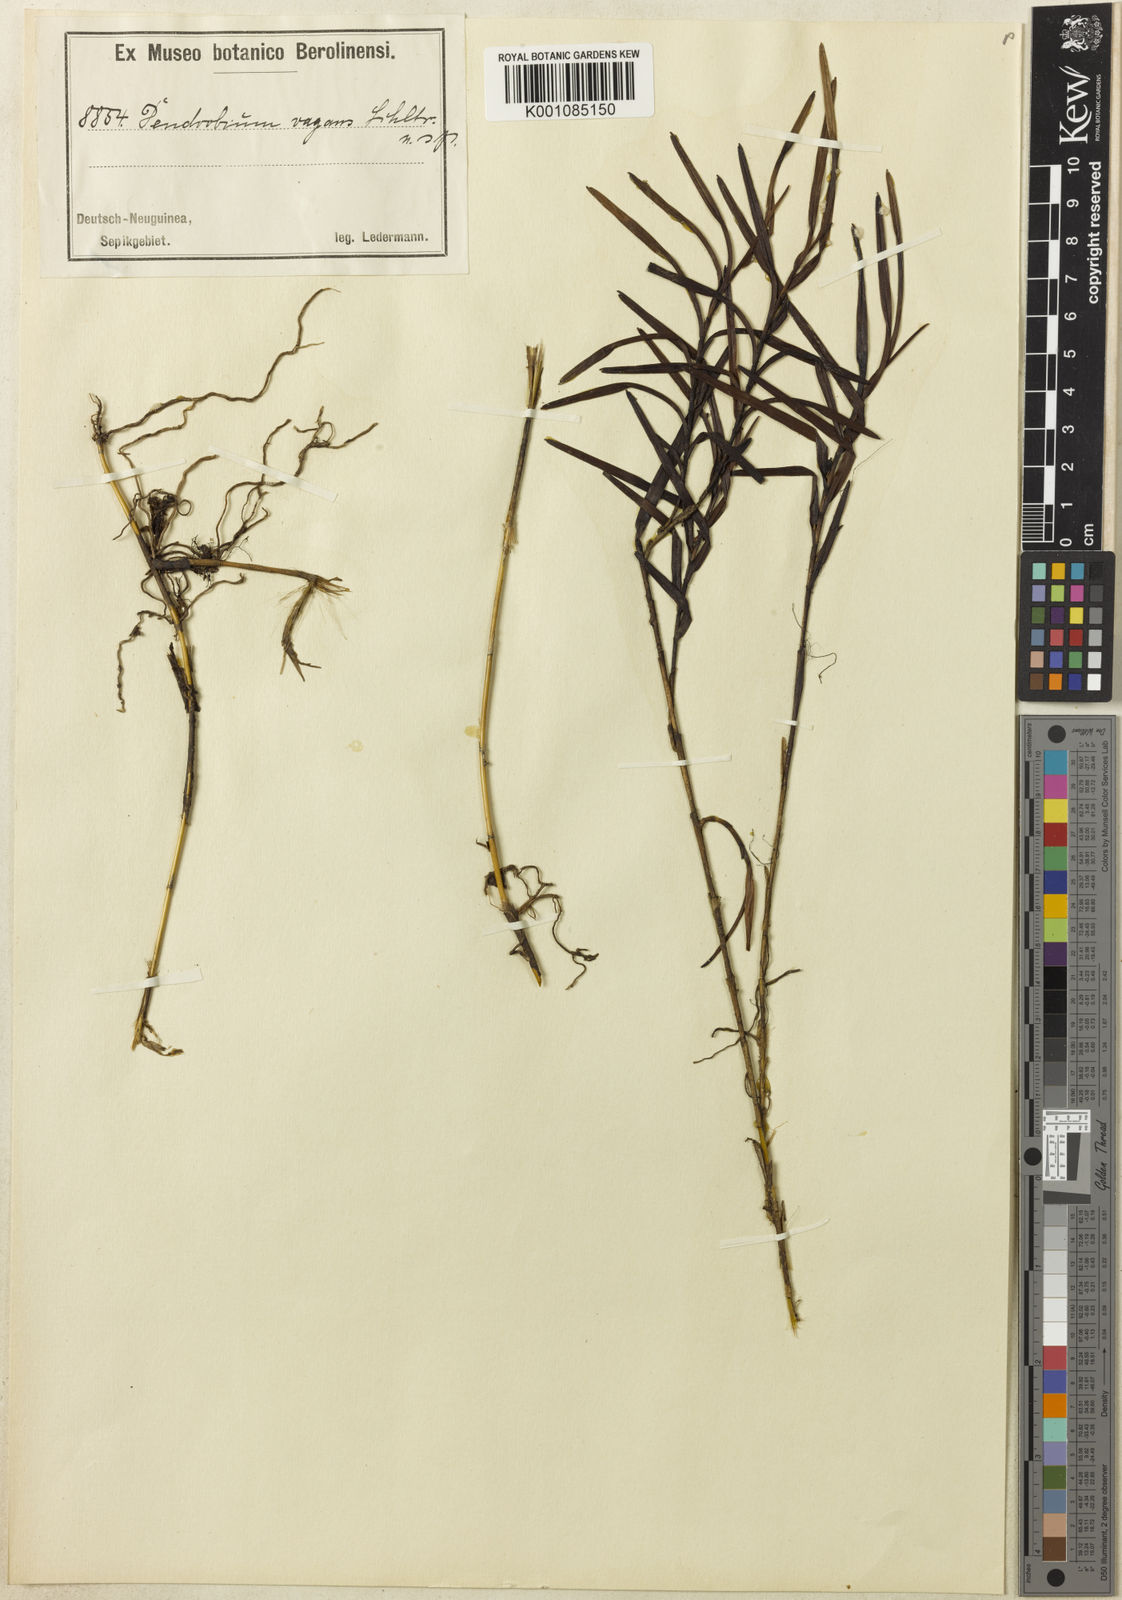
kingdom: Plantae
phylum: Tracheophyta
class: Liliopsida
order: Asparagales
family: Orchidaceae
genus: Dendrobium
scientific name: Dendrobium cuthbertsonii
